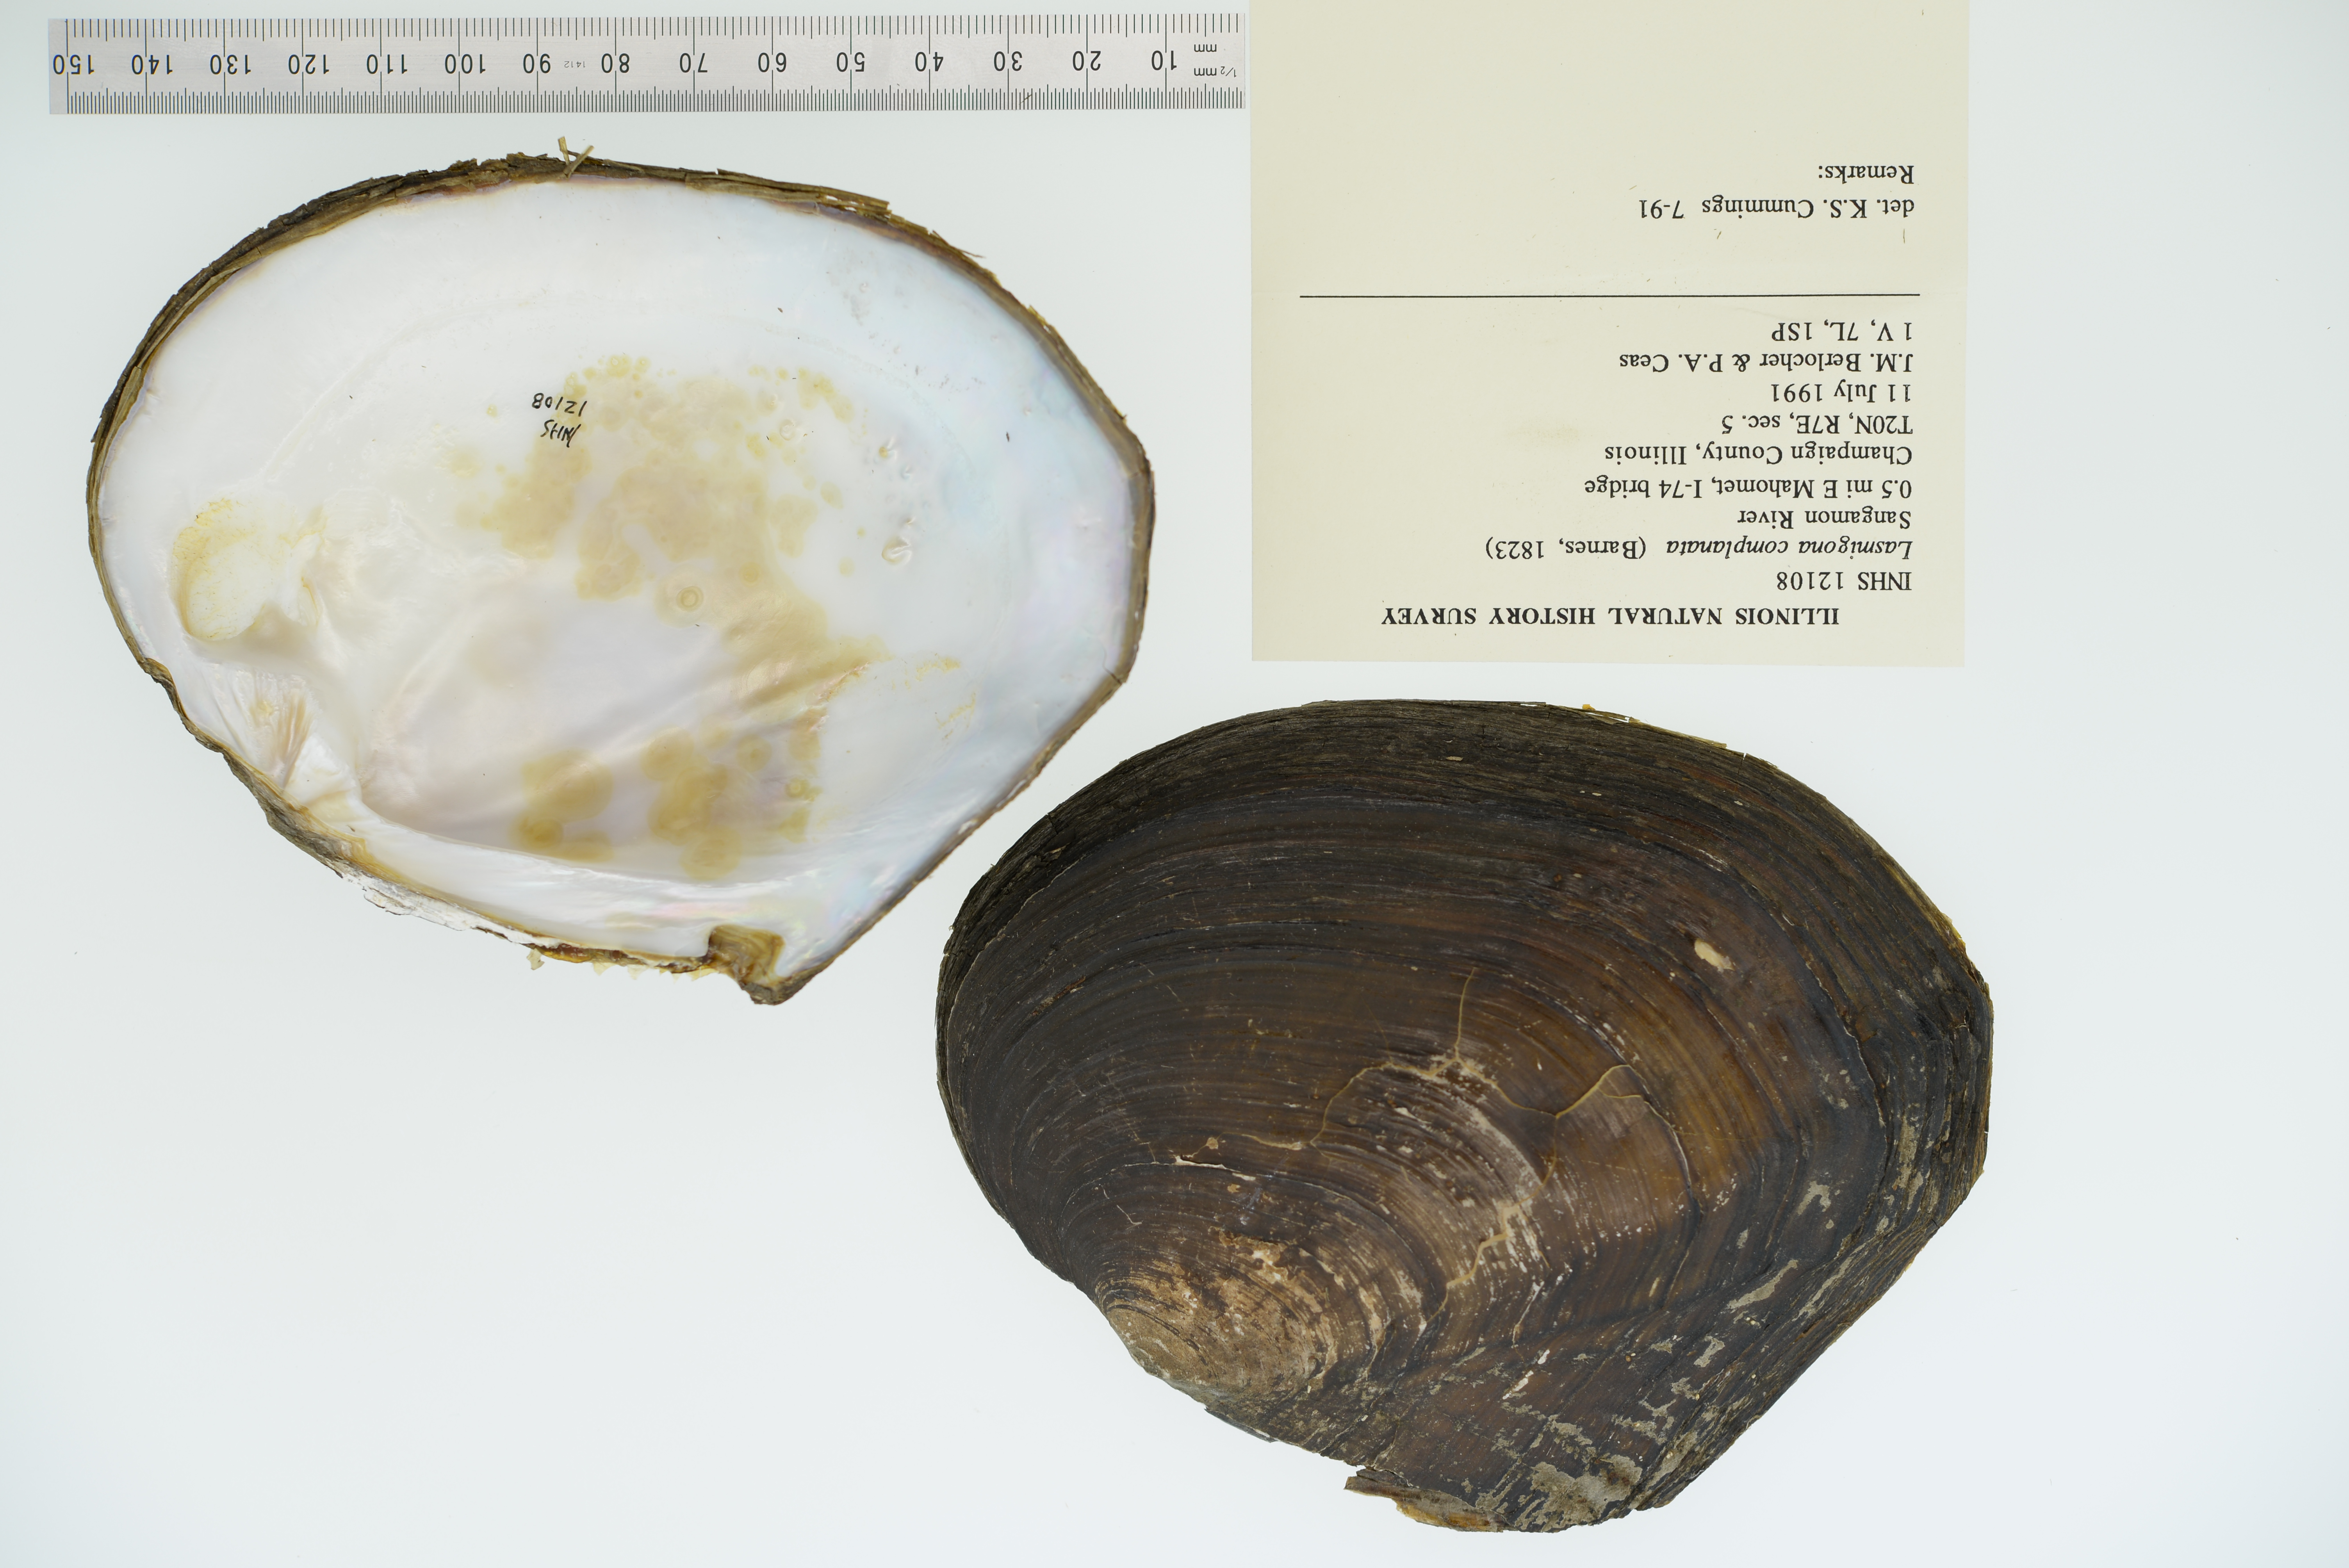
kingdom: Animalia
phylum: Mollusca
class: Bivalvia
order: Unionida
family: Unionidae
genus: Lasmigona
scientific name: Lasmigona complanata
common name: White heelsplitter
